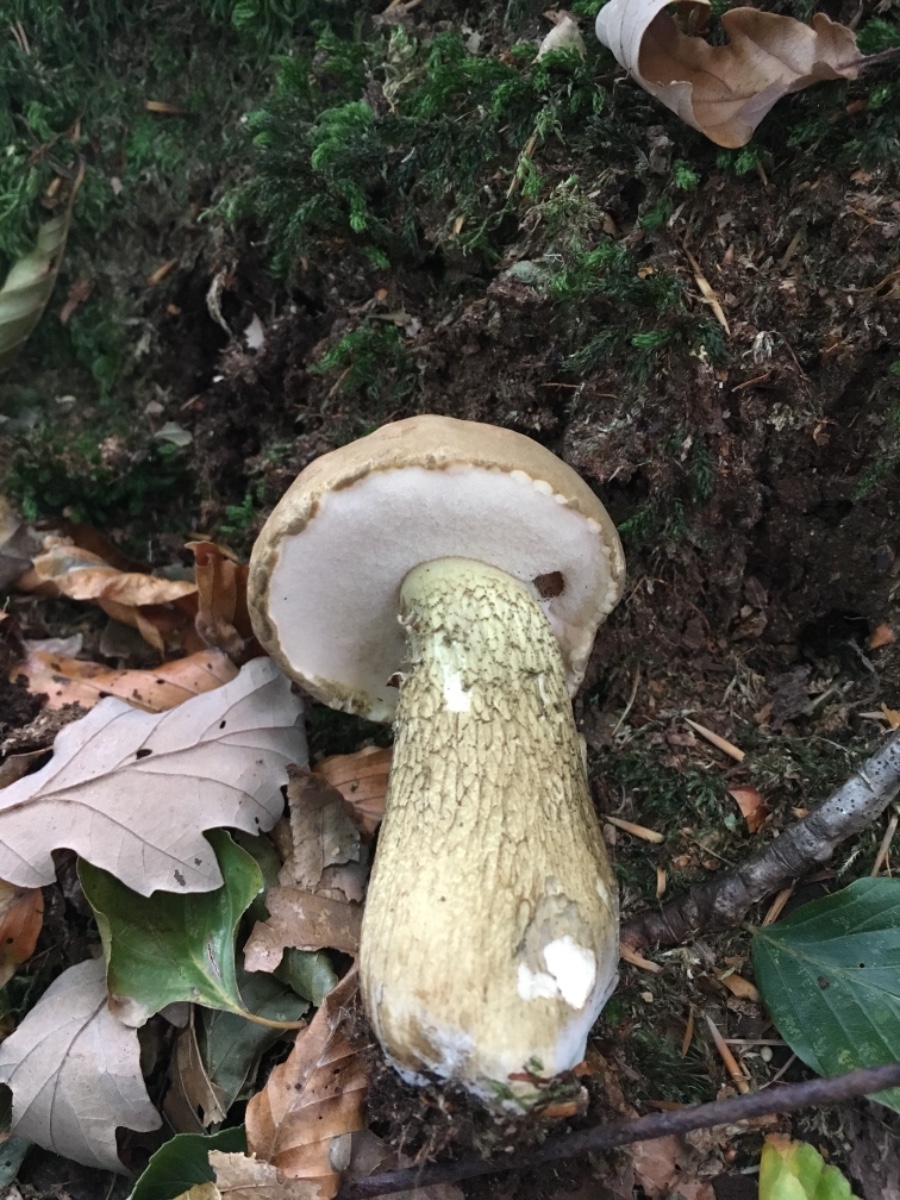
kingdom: Fungi
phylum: Basidiomycota
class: Agaricomycetes
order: Boletales
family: Boletaceae
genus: Tylopilus
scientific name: Tylopilus felleus
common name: galderørhat
